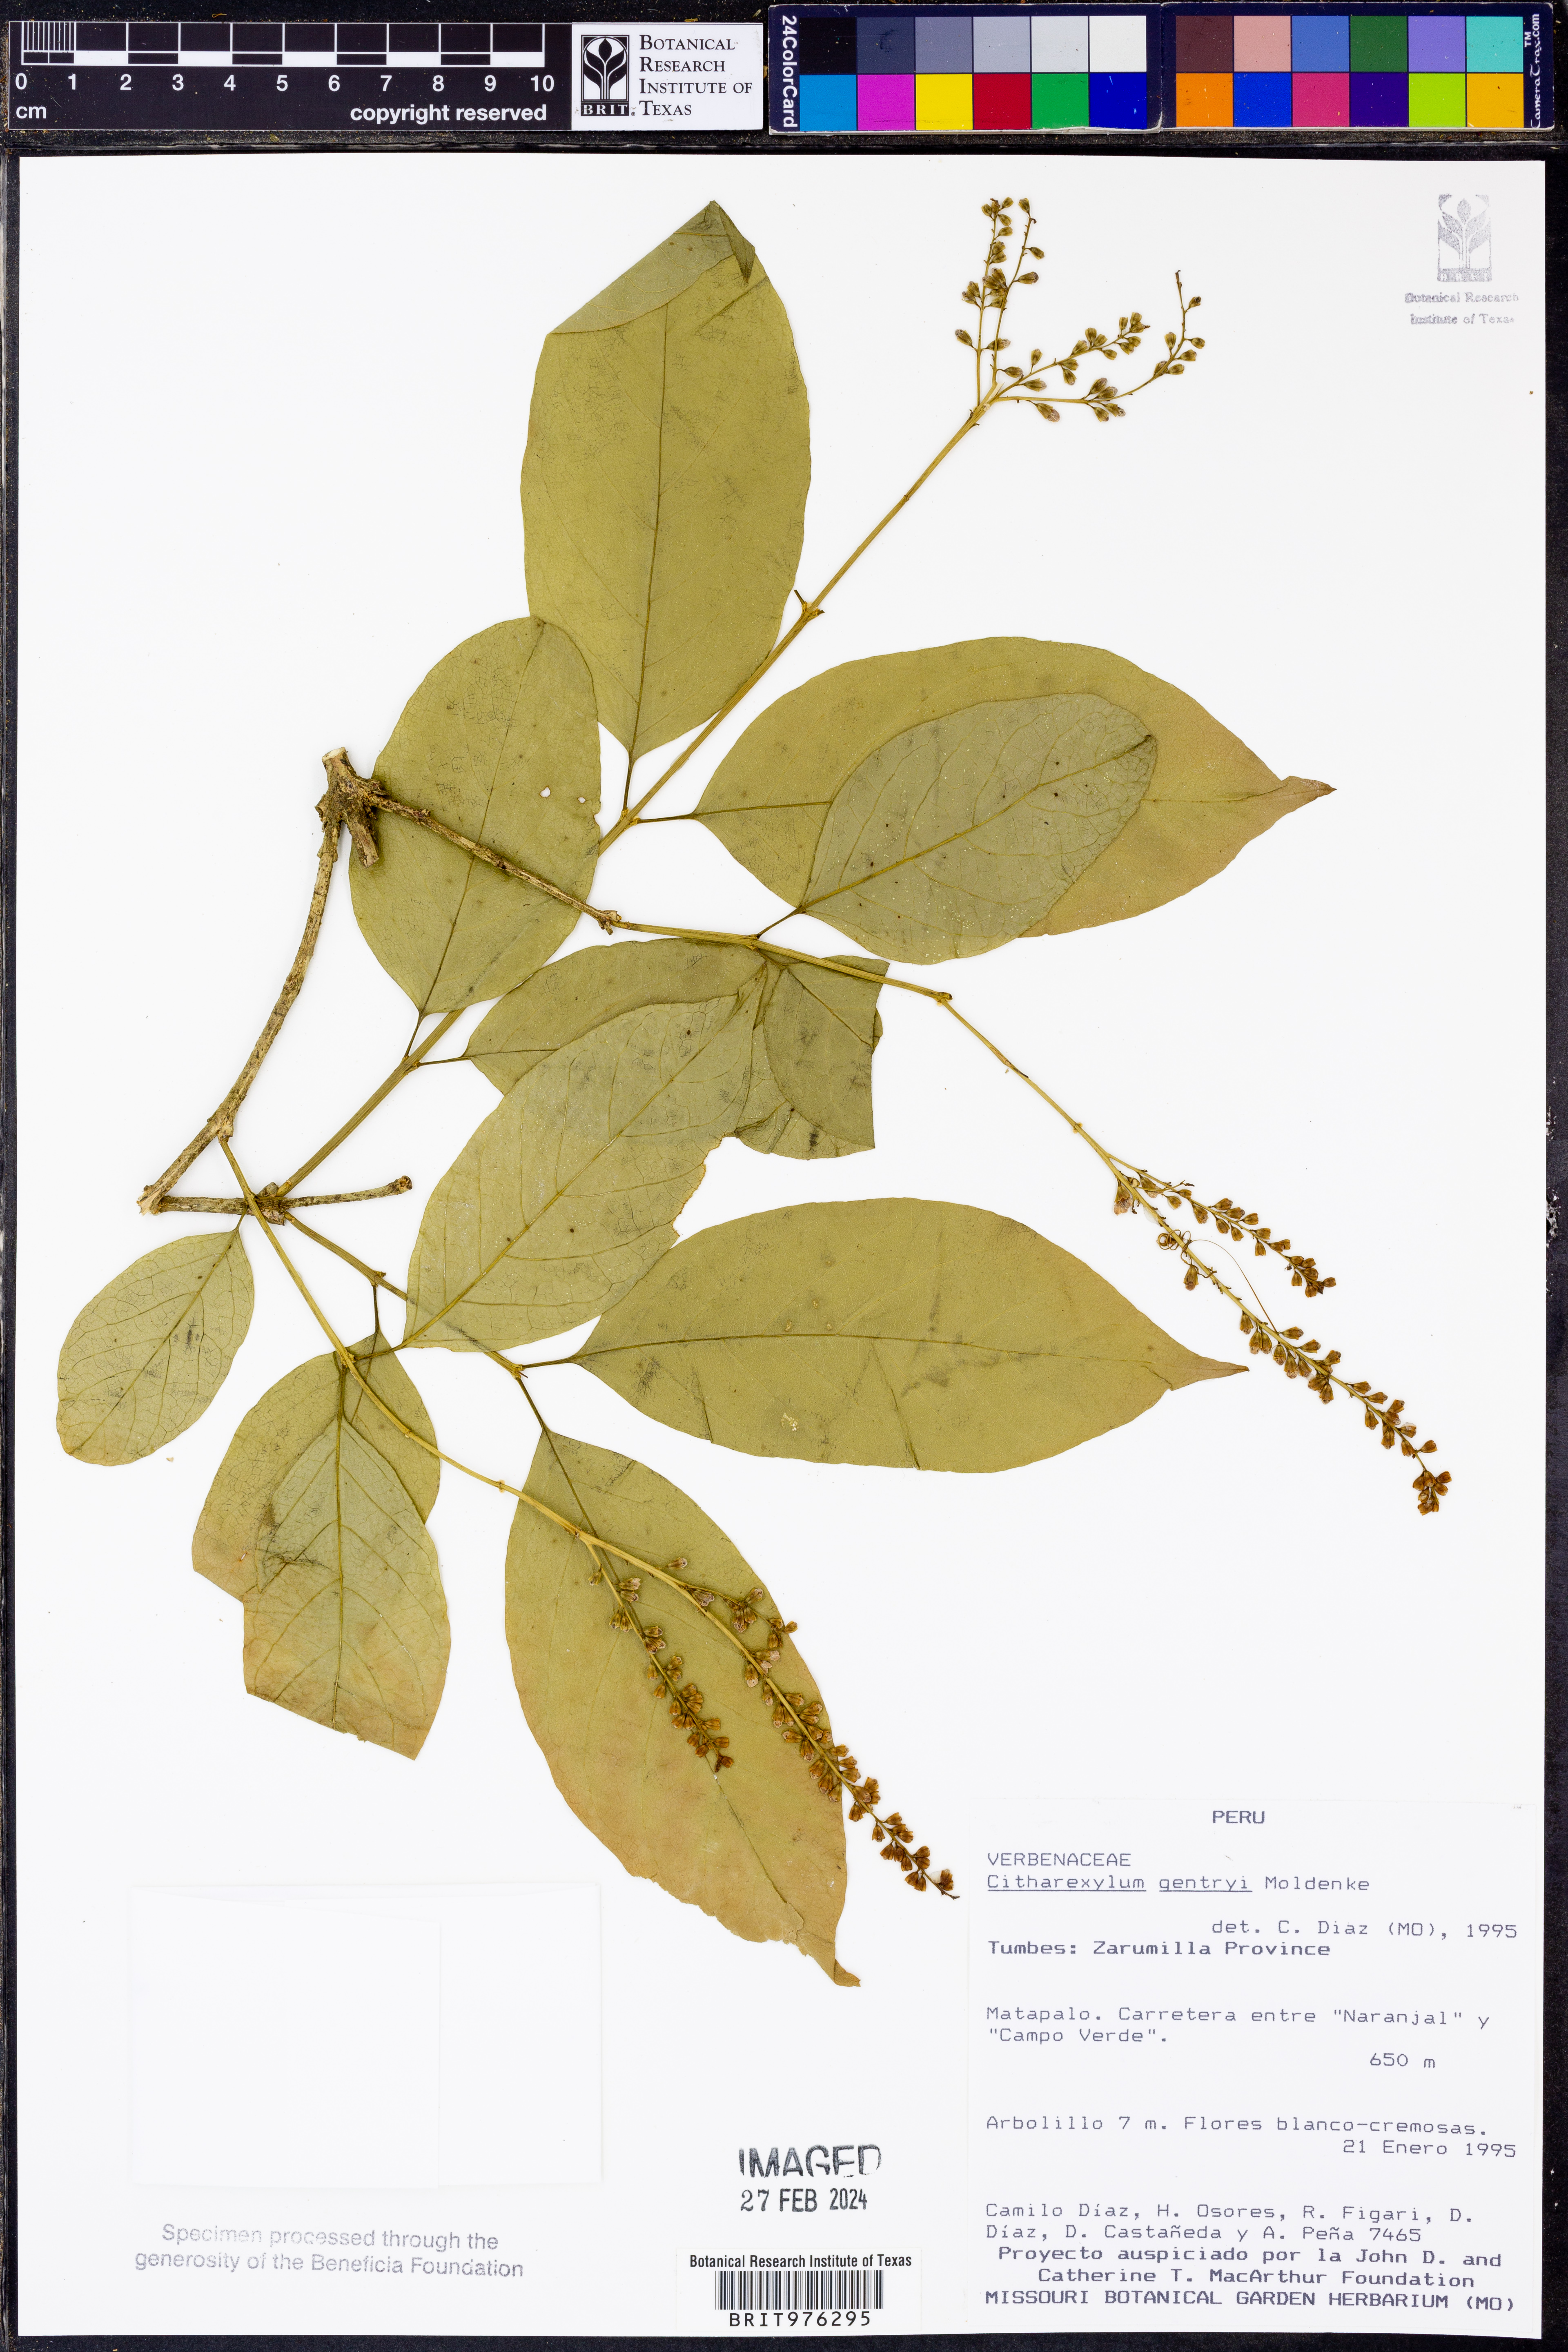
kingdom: Plantae
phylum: Tracheophyta
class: Magnoliopsida
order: Lamiales
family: Verbenaceae
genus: Citharexylum
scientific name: Citharexylum
